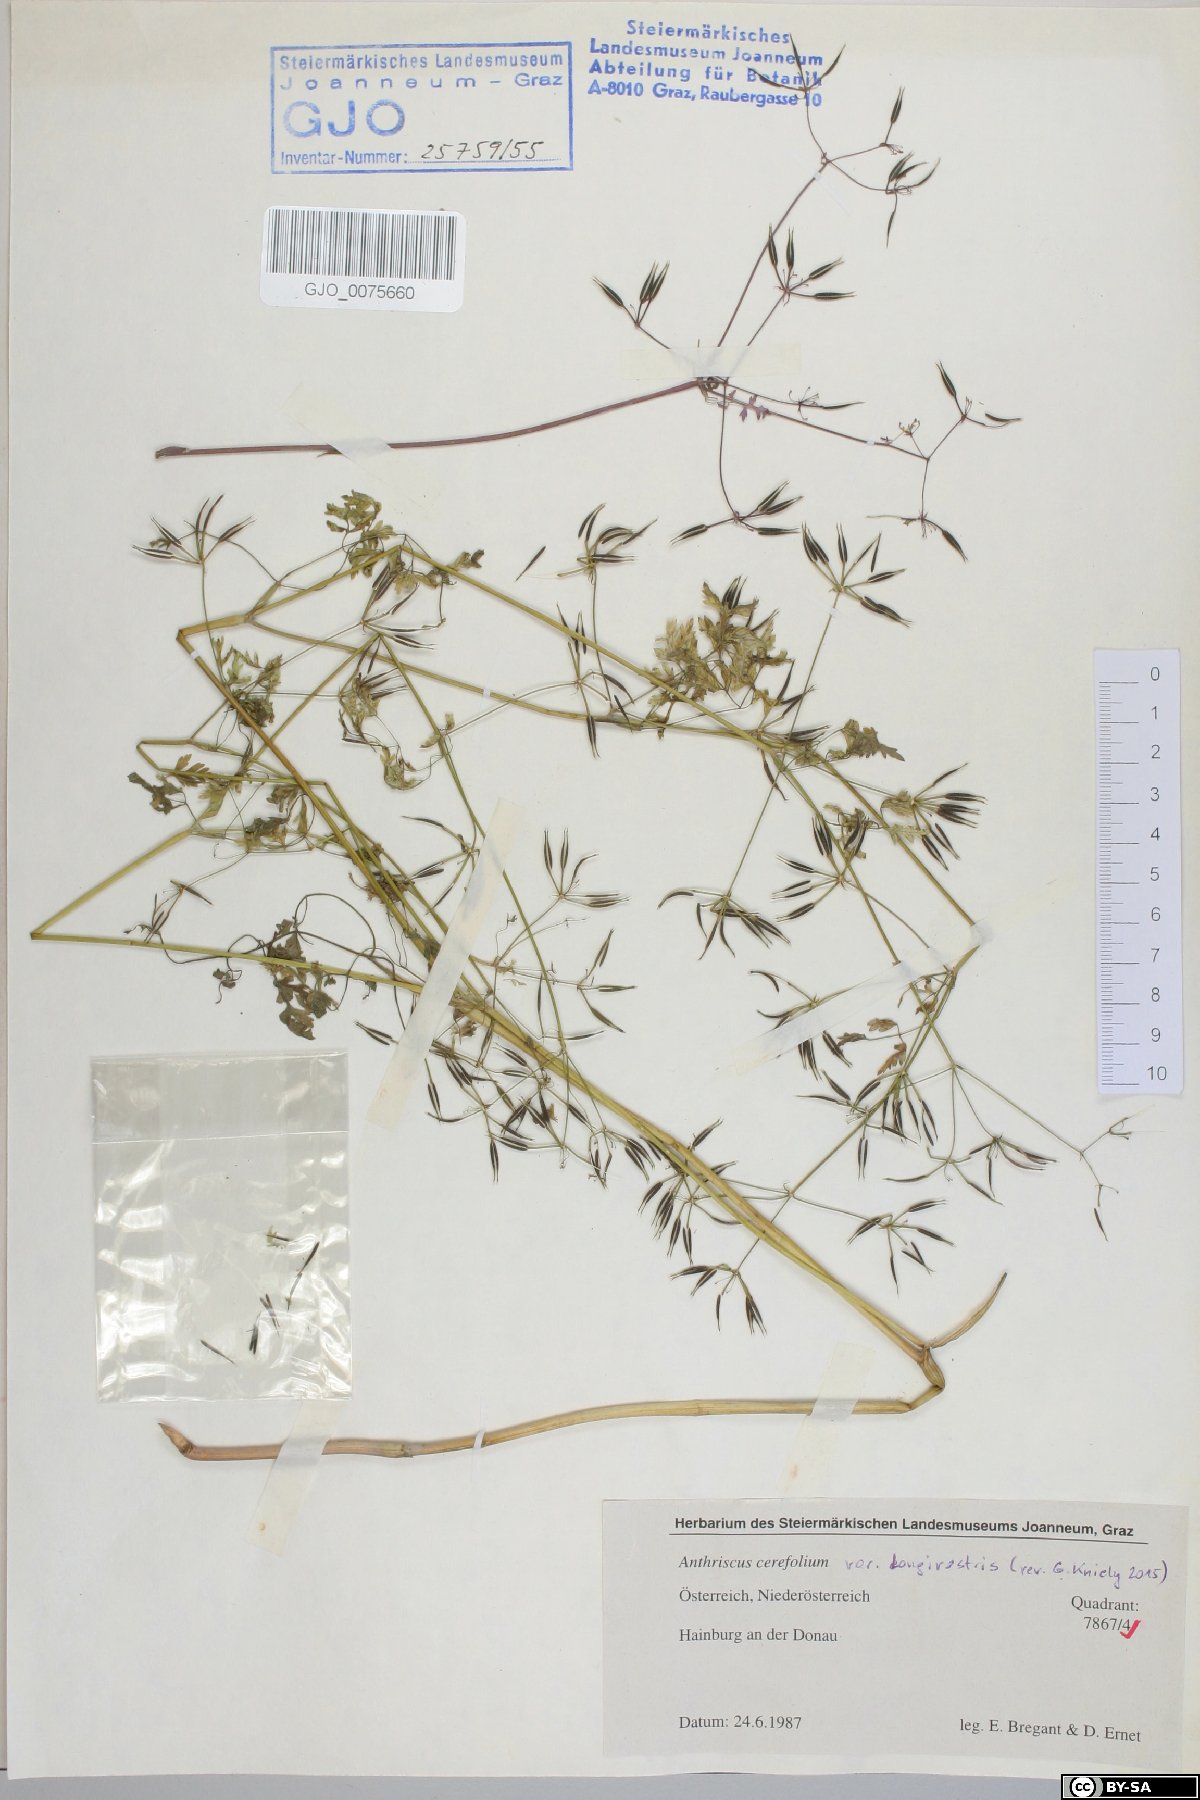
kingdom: Plantae
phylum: Tracheophyta
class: Magnoliopsida
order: Apiales
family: Apiaceae
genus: Anthriscus
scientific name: Anthriscus cerefolium
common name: Garden chervil
